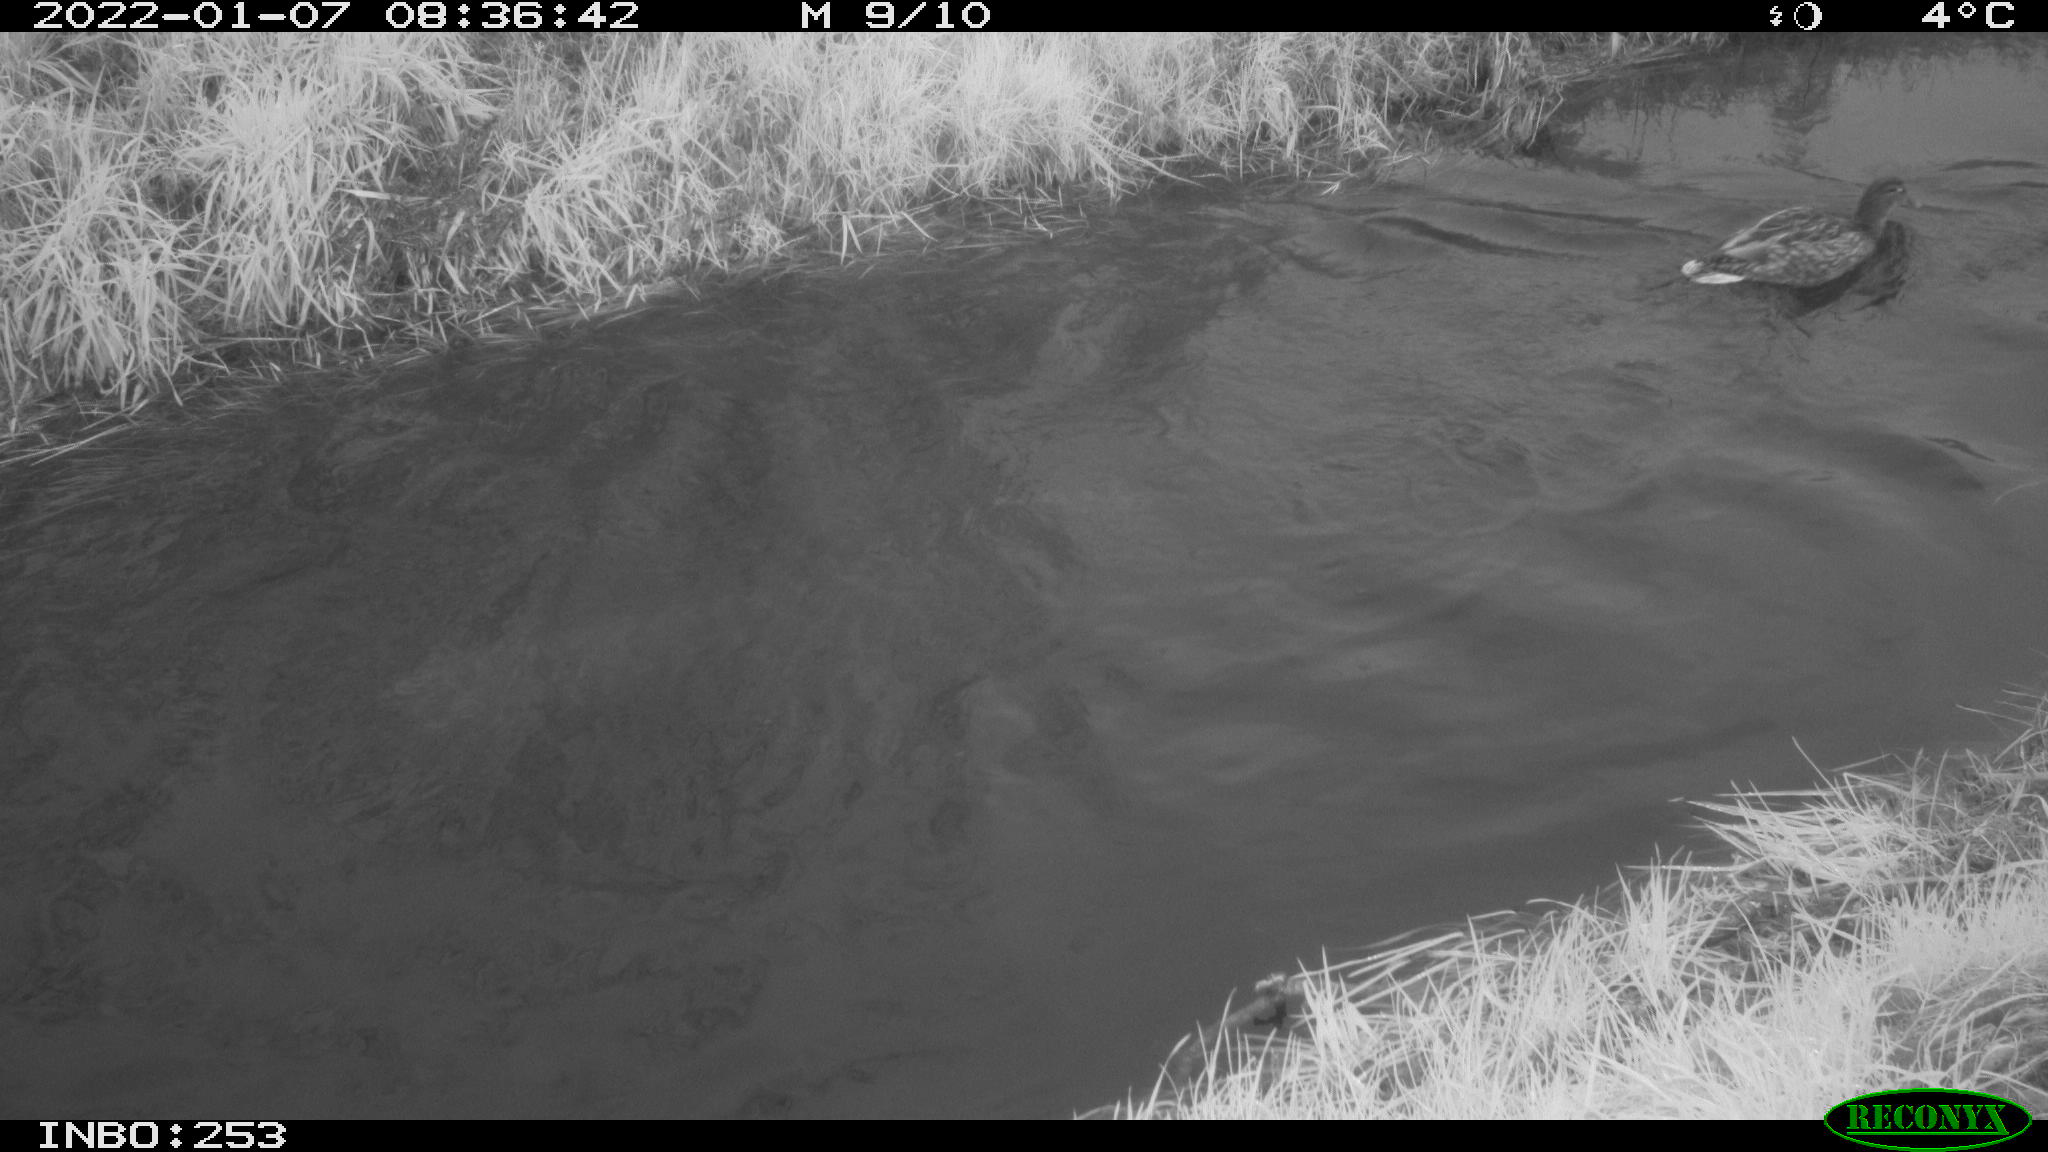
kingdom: Animalia
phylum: Chordata
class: Aves
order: Anseriformes
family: Anatidae
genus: Anas
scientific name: Anas
